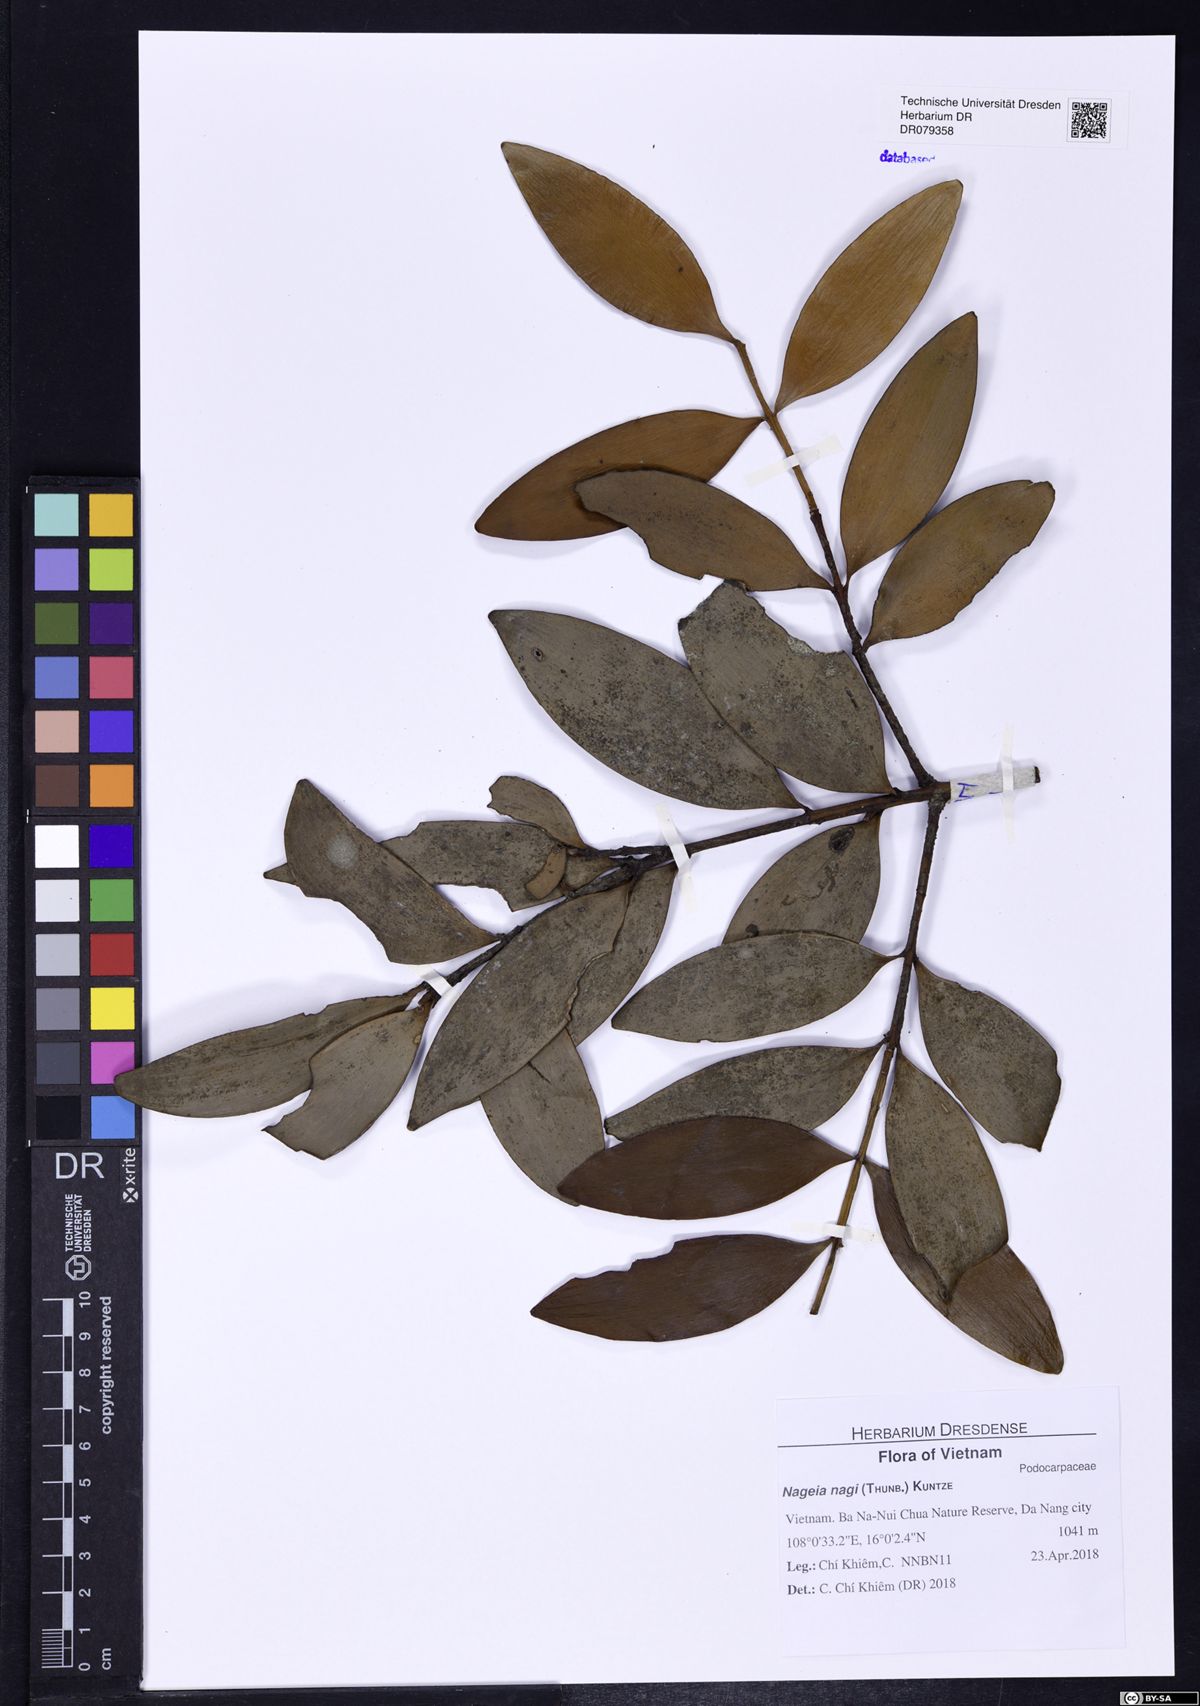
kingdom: Plantae
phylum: Tracheophyta
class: Pinopsida
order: Pinales
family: Podocarpaceae
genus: Nageia
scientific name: Nageia nagi
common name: Kaphal
